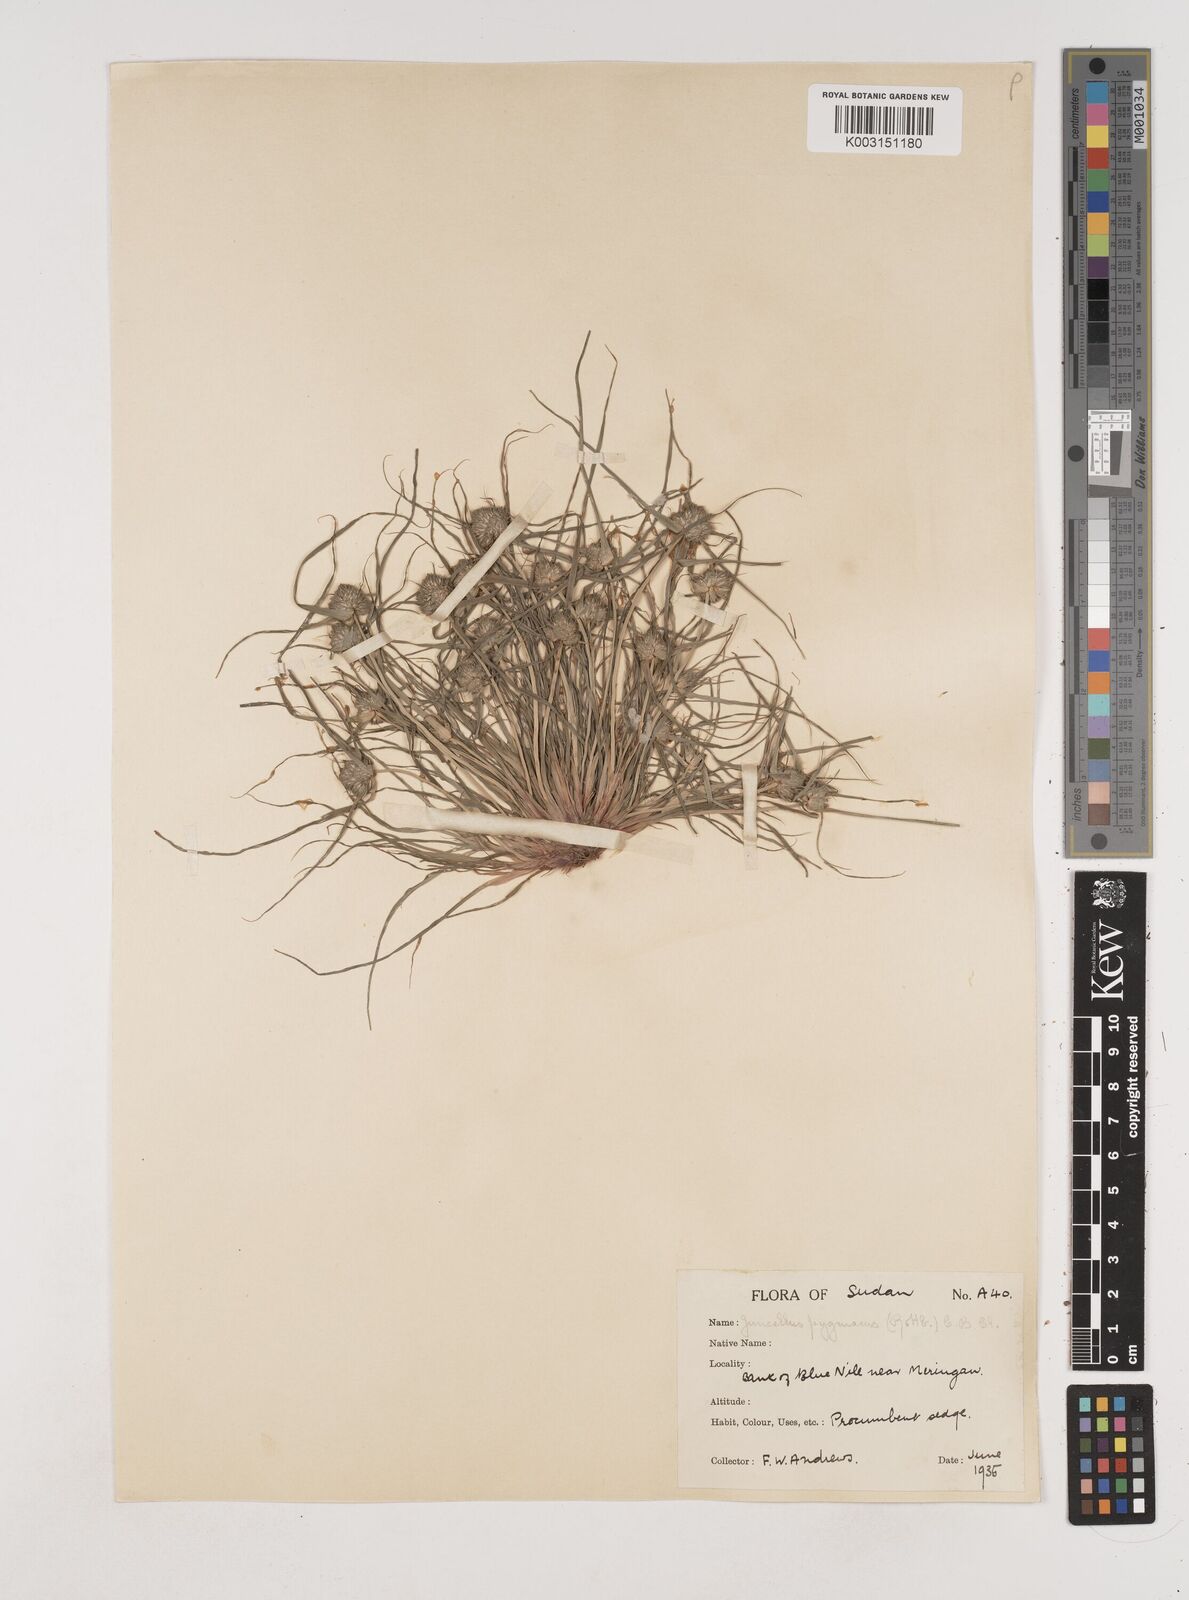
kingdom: Plantae
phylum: Tracheophyta
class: Liliopsida
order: Poales
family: Cyperaceae
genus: Cyperus
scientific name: Cyperus michelianus
